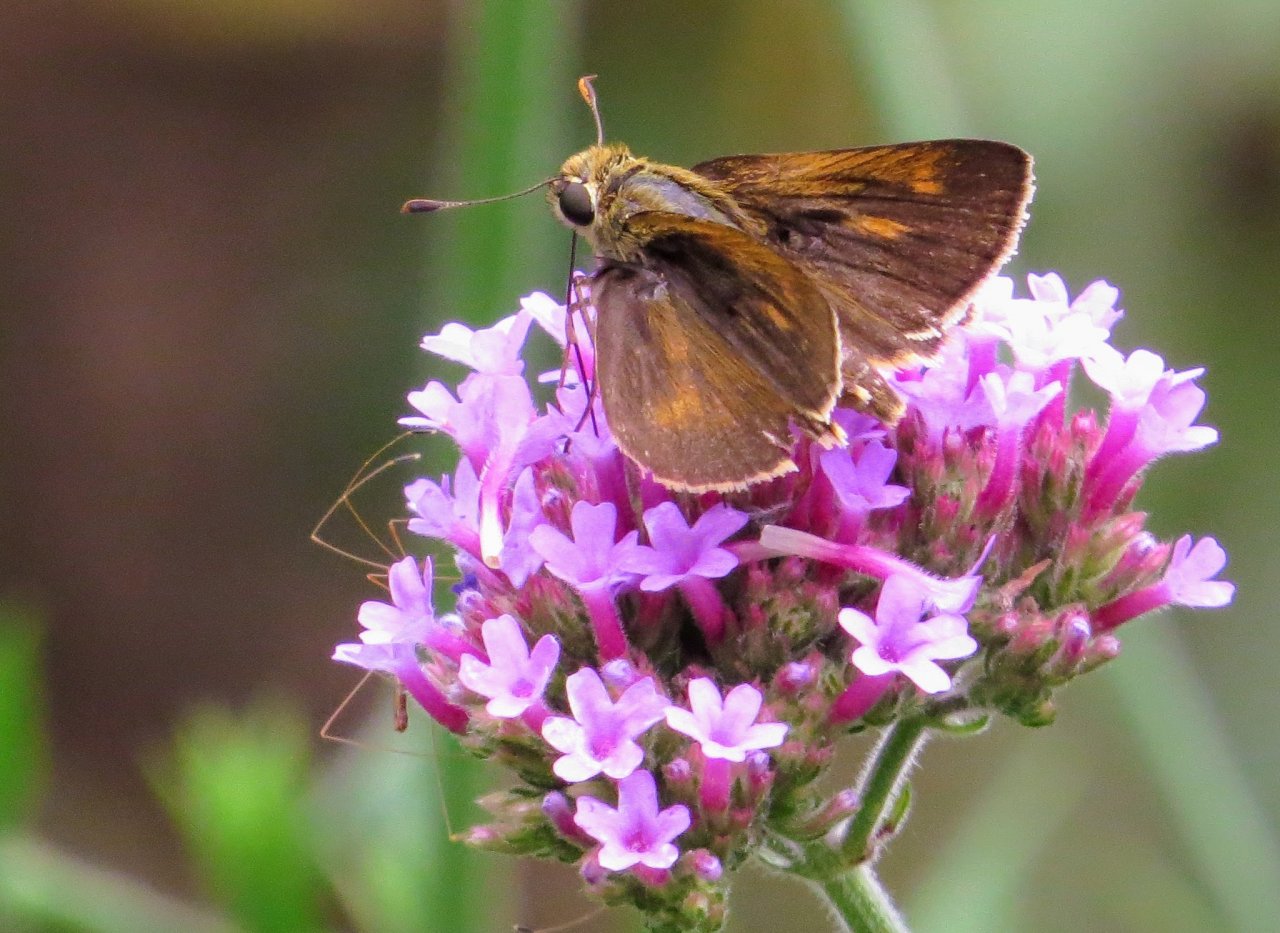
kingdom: Animalia
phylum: Arthropoda
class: Insecta
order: Lepidoptera
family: Hesperiidae
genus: Wallengrenia
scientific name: Wallengrenia otho
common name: Southern Broken-Dash
